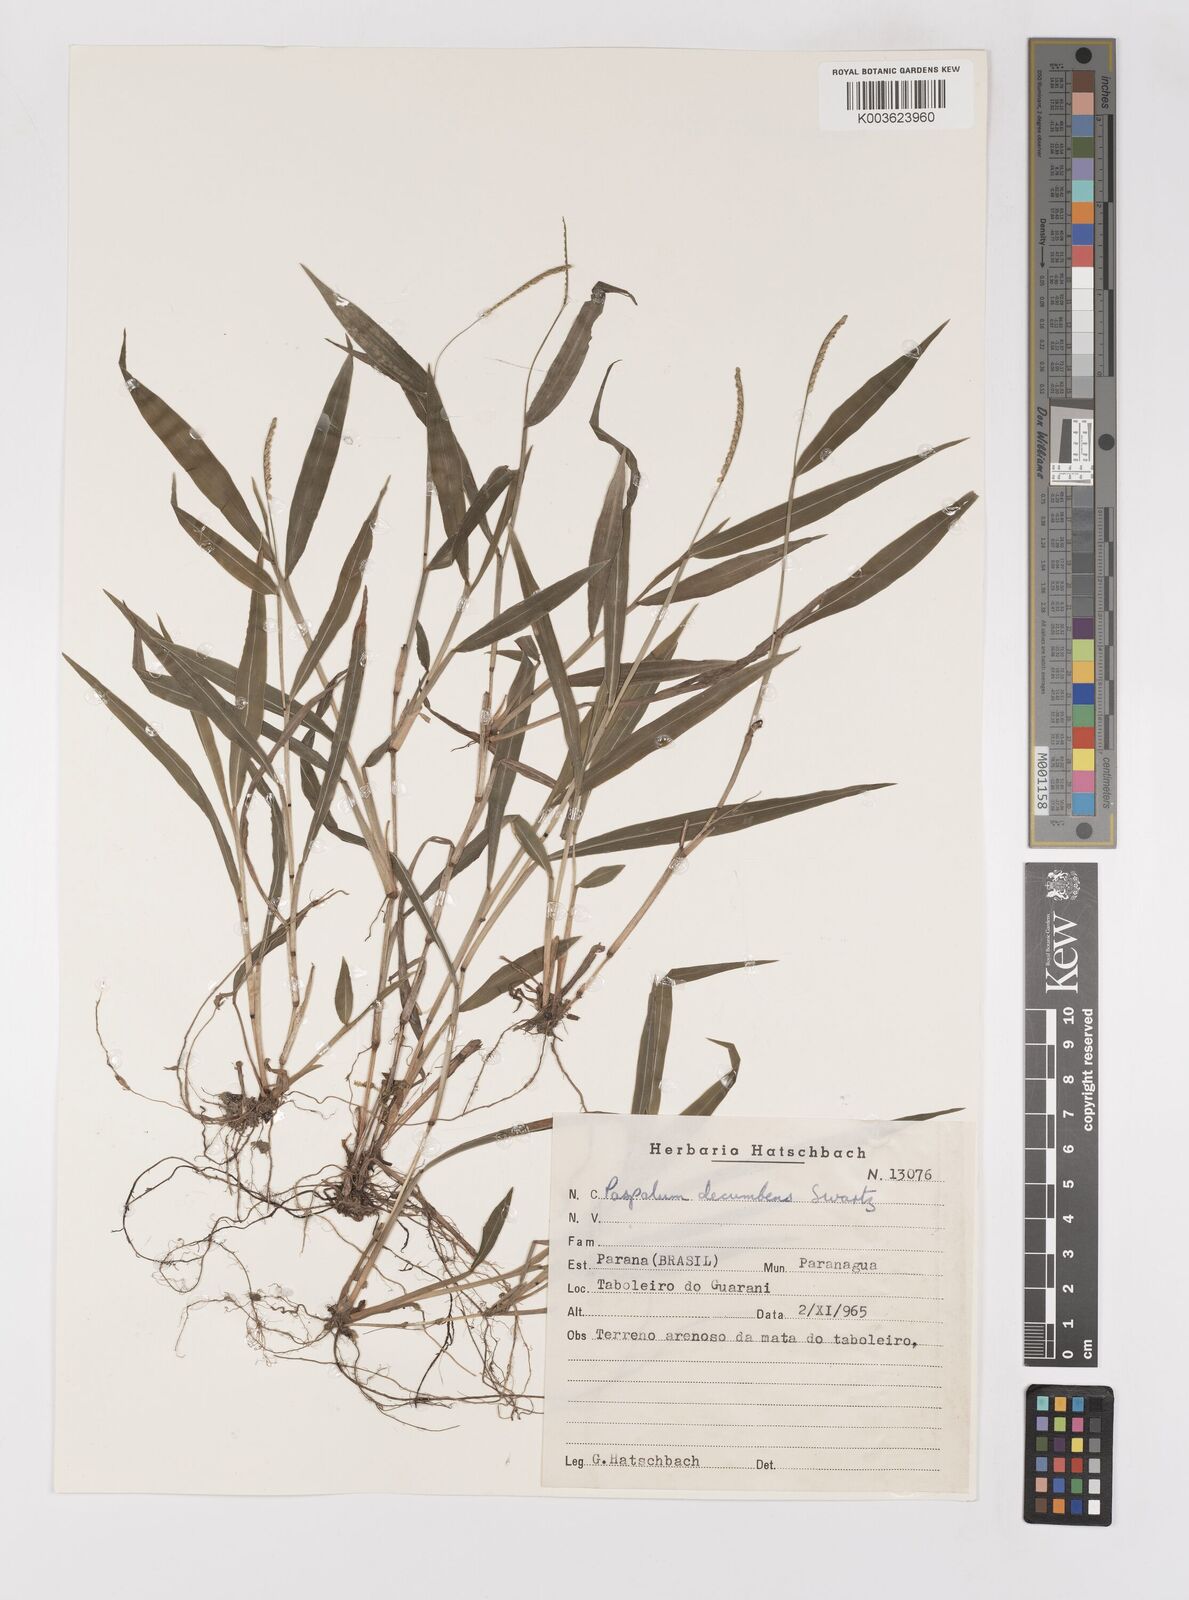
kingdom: Plantae
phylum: Tracheophyta
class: Liliopsida
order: Poales
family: Poaceae
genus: Paspalum
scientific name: Paspalum nutans
